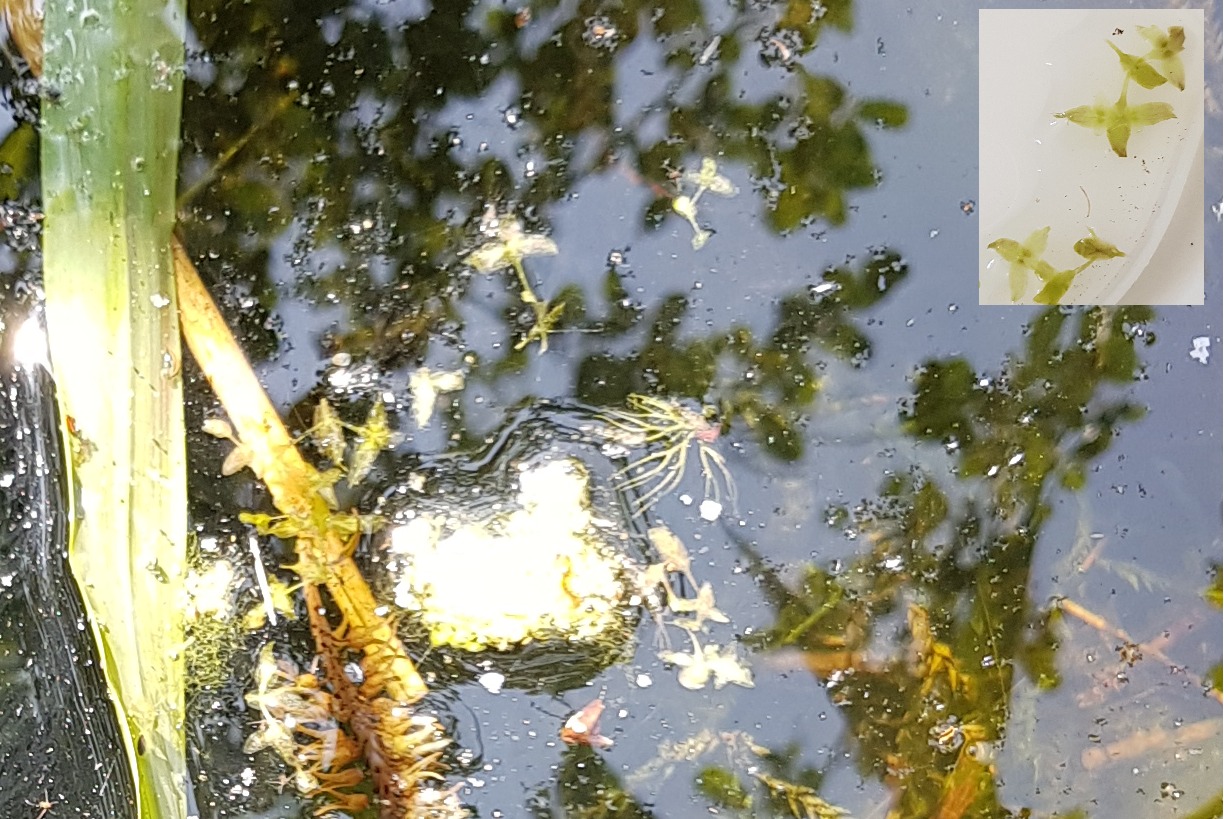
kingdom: Plantae
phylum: Tracheophyta
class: Liliopsida
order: Alismatales
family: Araceae
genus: Lemna
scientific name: Lemna trisulca
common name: Kors-andemad
